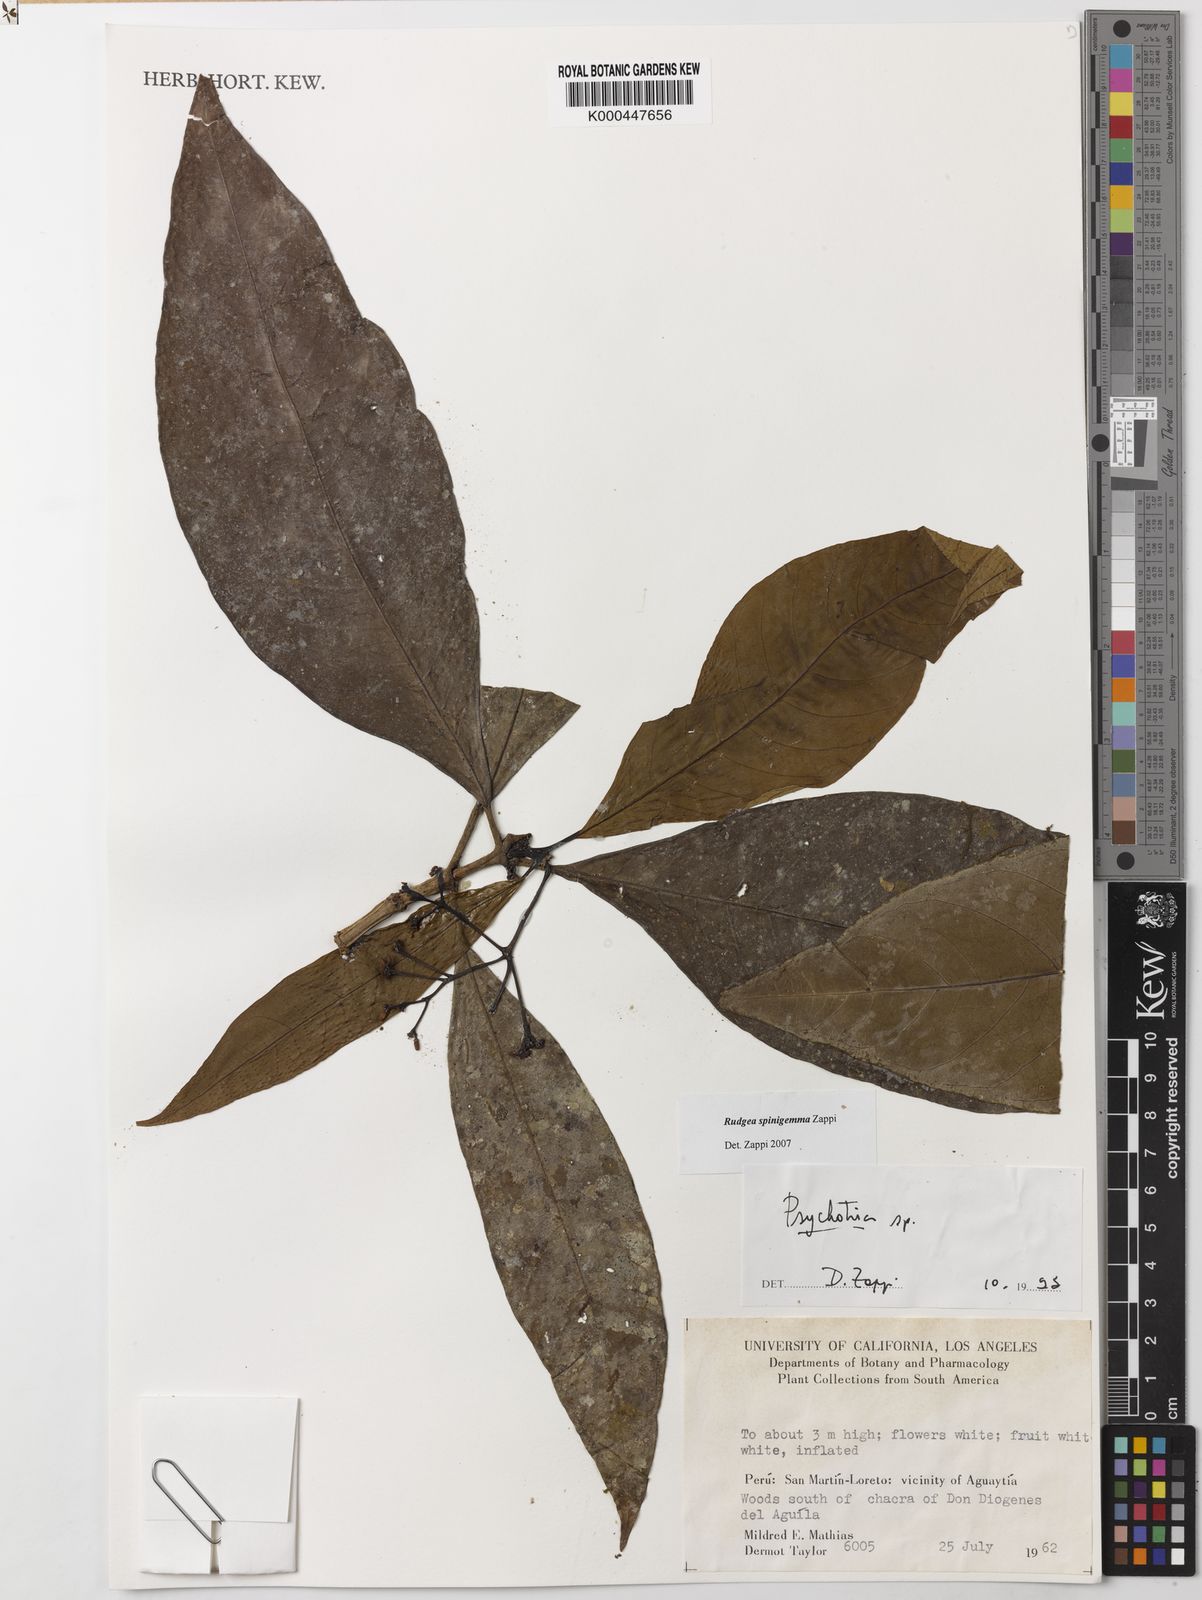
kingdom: Plantae
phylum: Tracheophyta
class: Magnoliopsida
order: Gentianales
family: Rubiaceae
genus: Rudgea
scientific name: Rudgea spinigemma
